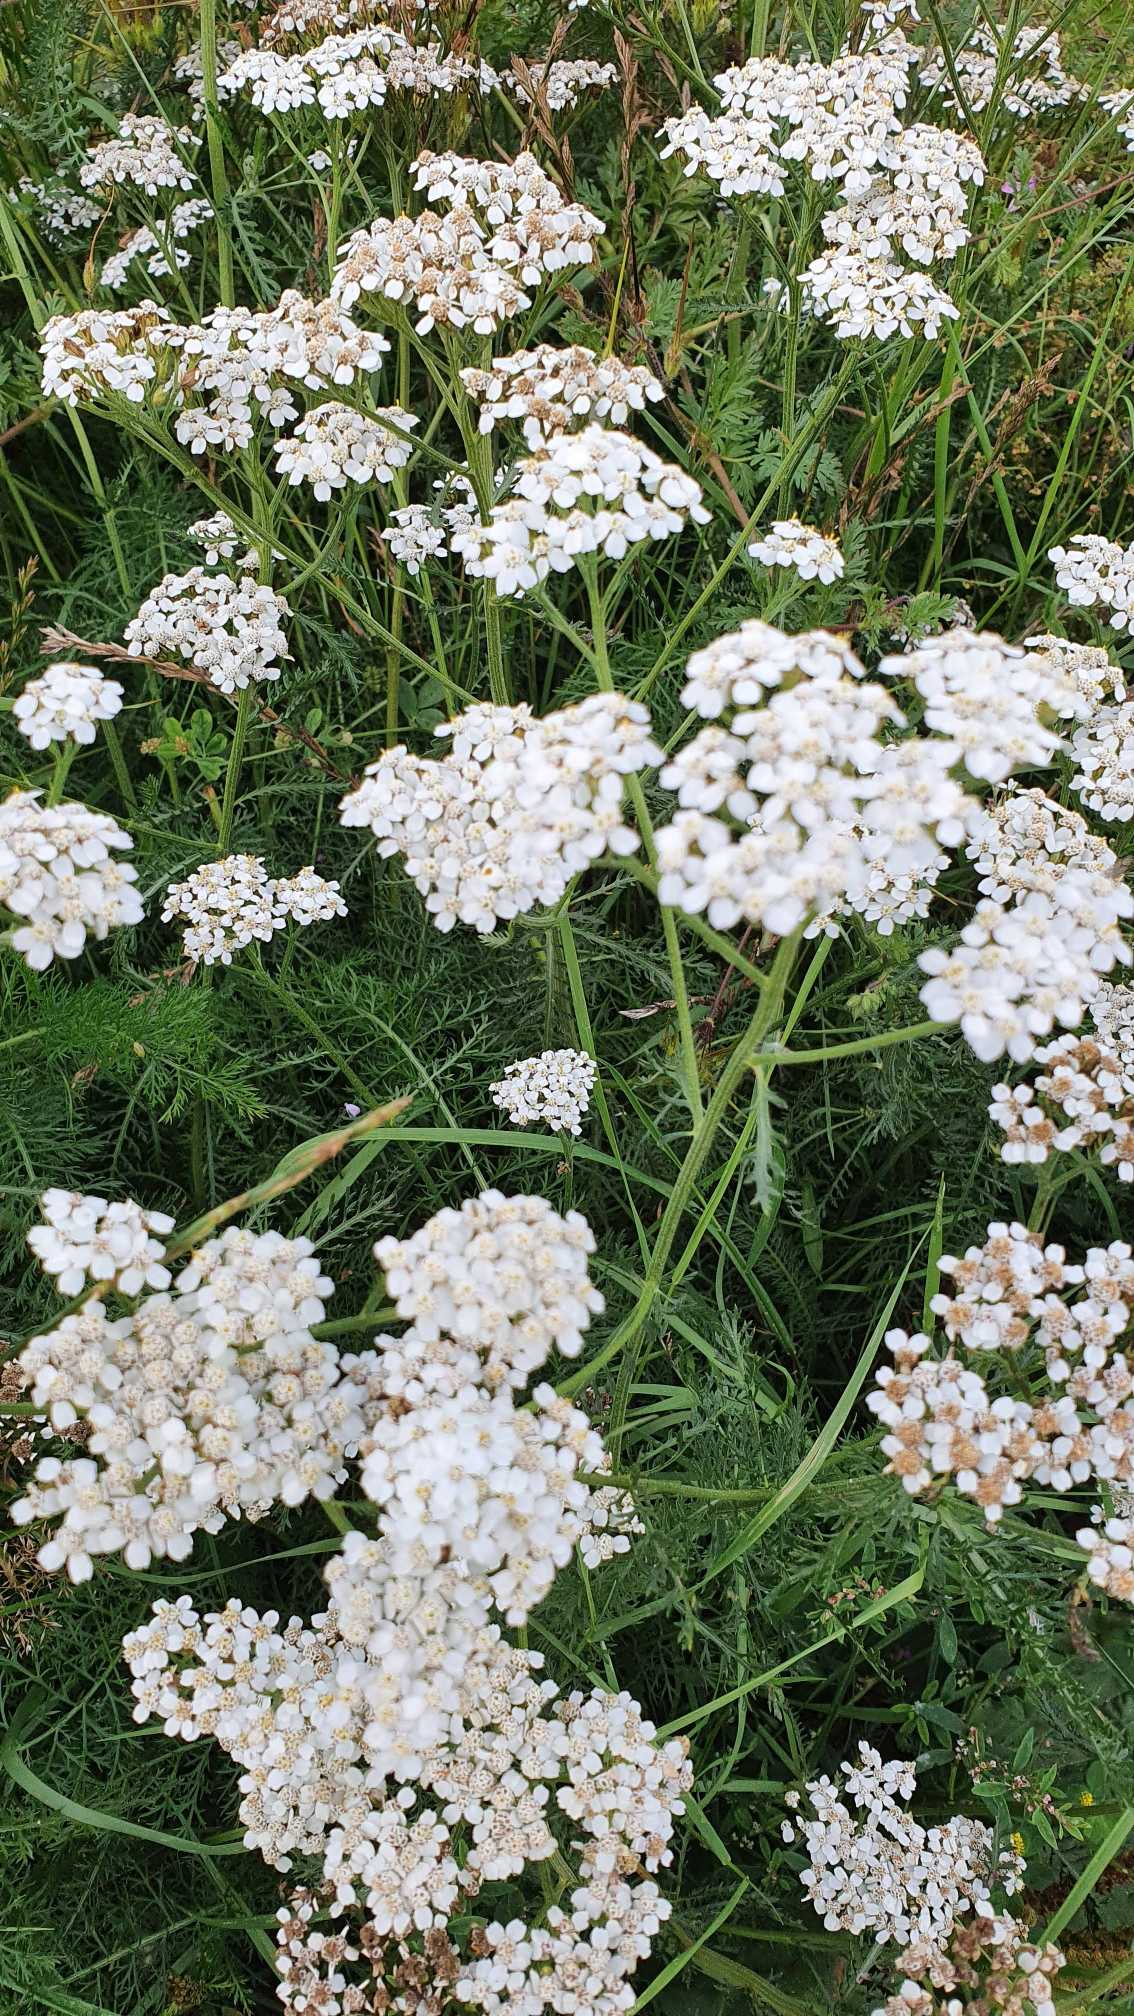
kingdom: Plantae
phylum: Tracheophyta
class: Magnoliopsida
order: Asterales
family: Asteraceae
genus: Achillea
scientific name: Achillea millefolium
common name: Almindelig røllike
